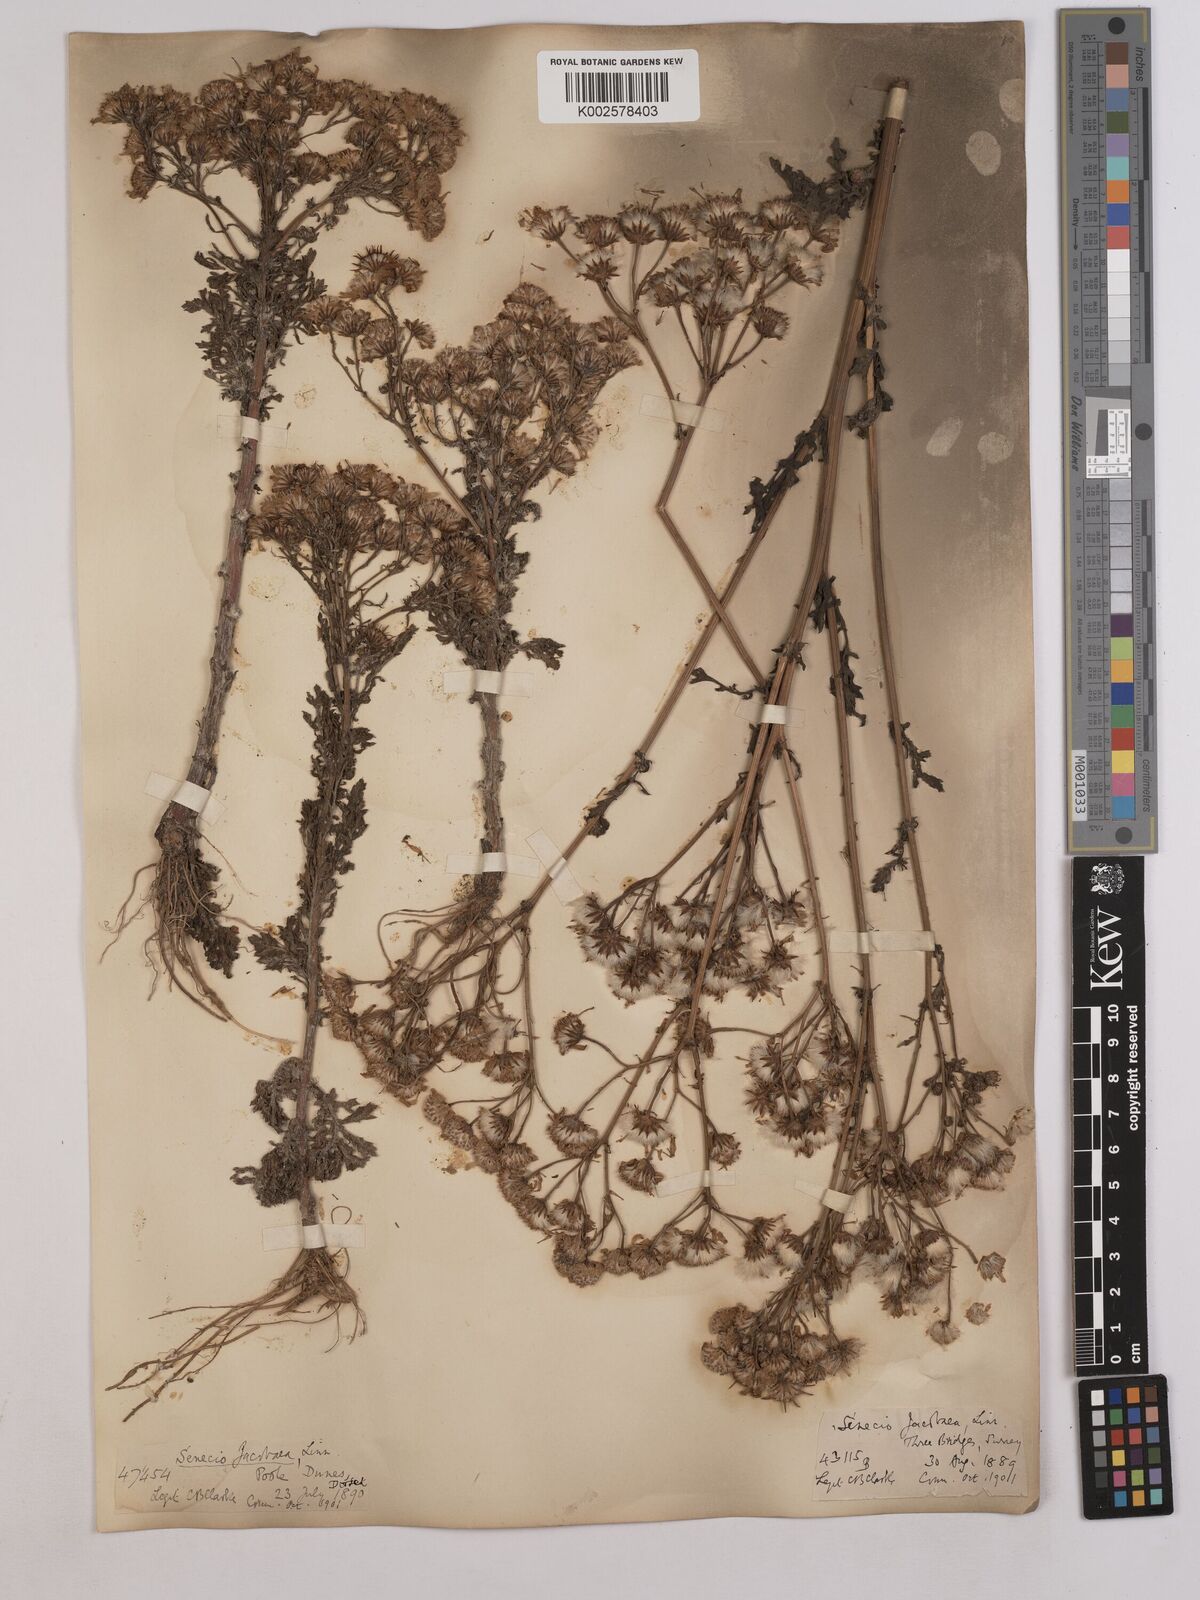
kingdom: Plantae
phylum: Tracheophyta
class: Magnoliopsida
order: Asterales
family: Asteraceae
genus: Jacobaea
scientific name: Jacobaea vulgaris
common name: Stinking willie
